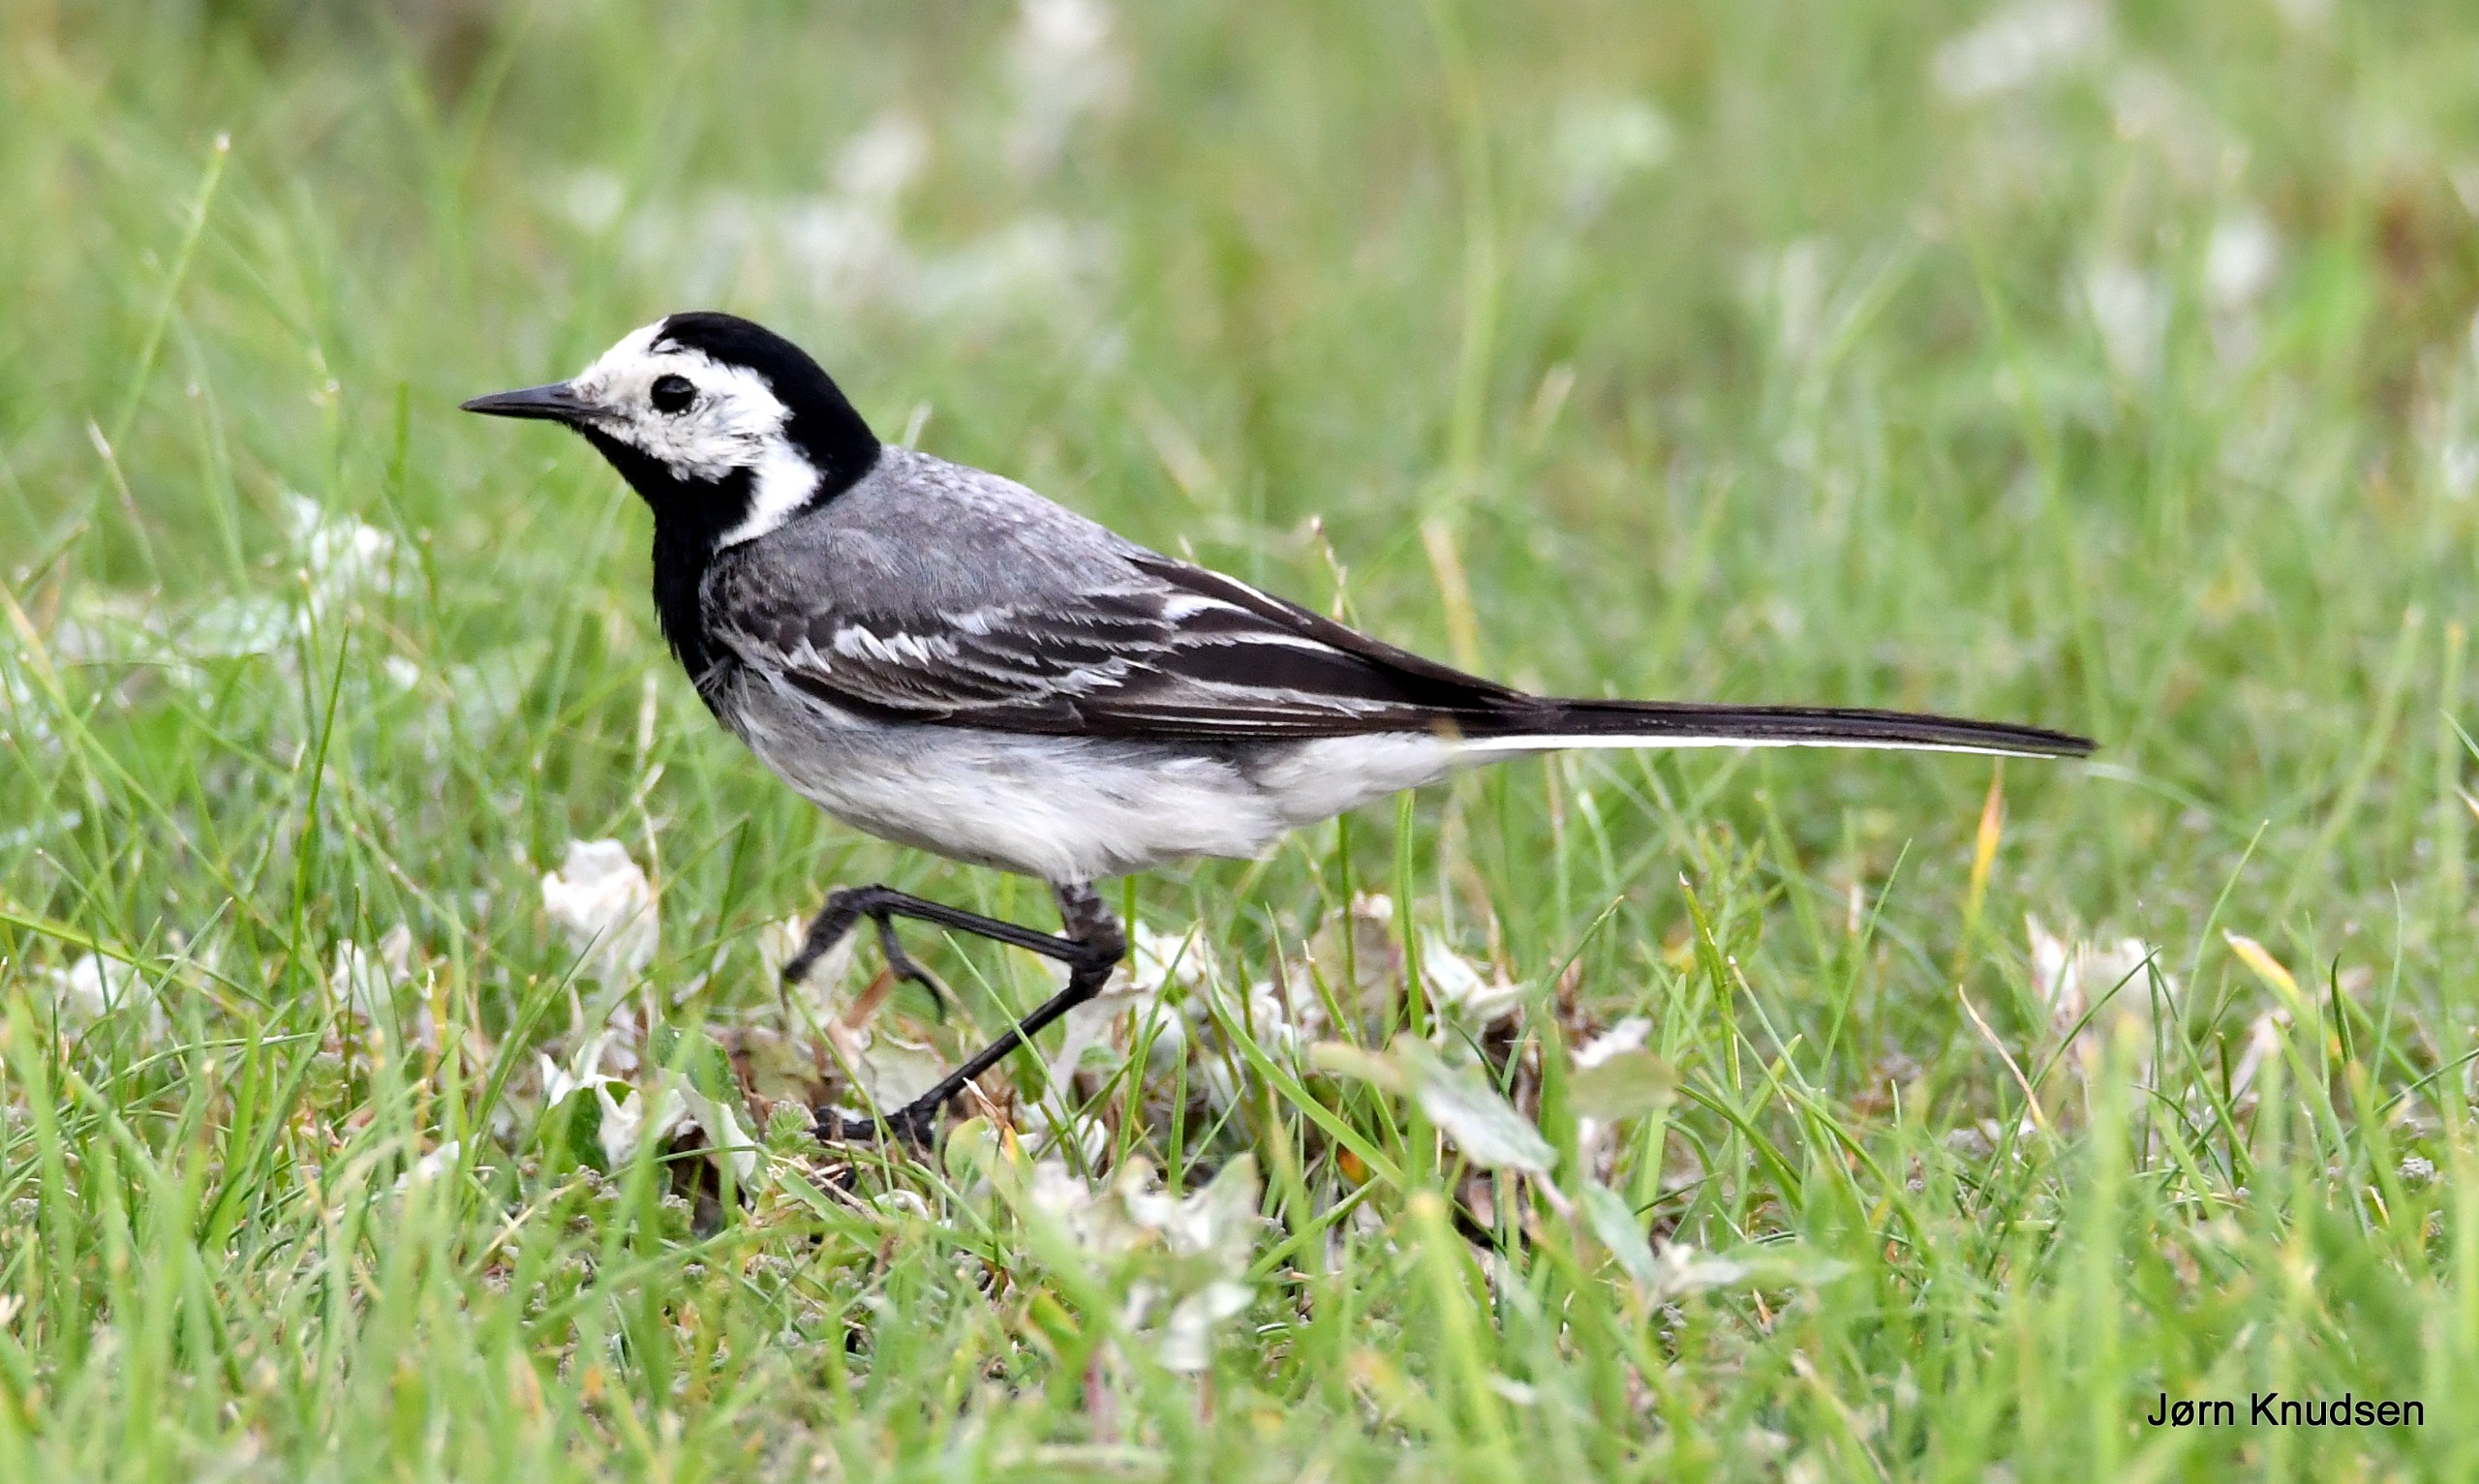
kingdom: Animalia
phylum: Chordata
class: Aves
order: Passeriformes
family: Motacillidae
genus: Motacilla
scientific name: Motacilla alba
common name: Hvid vipstjert
